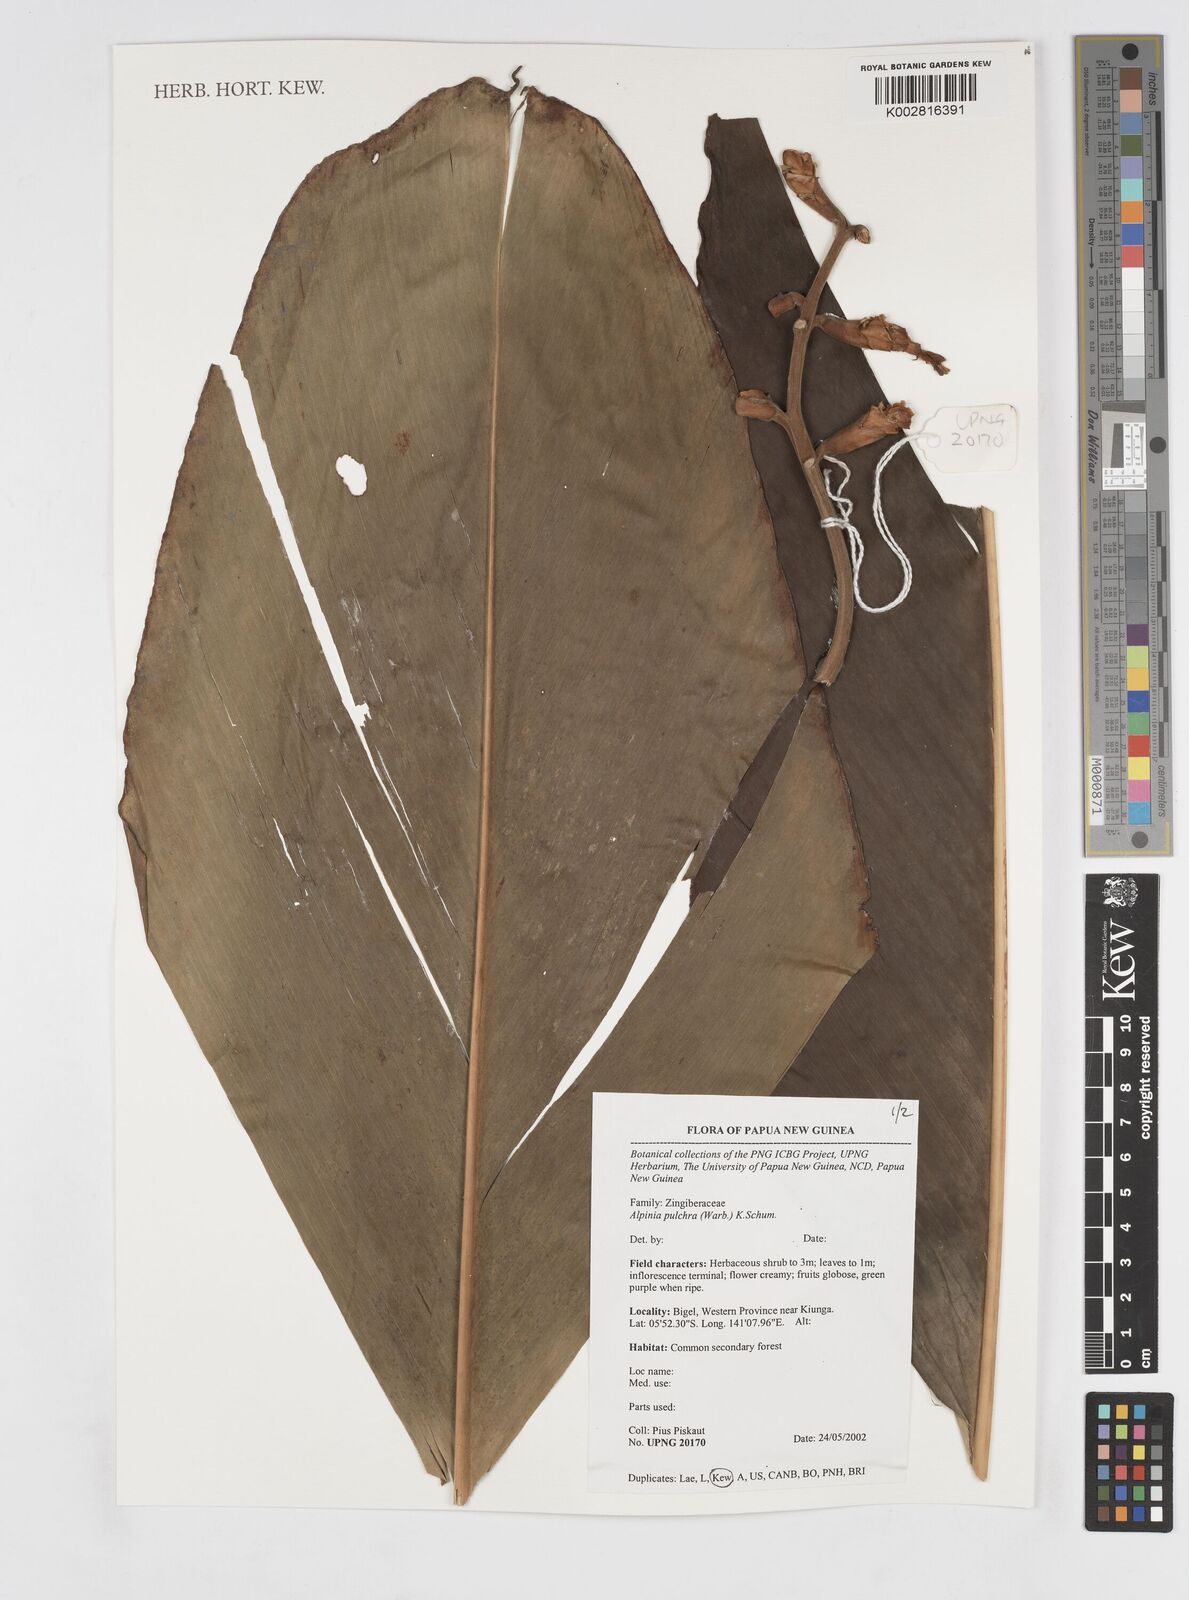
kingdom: Plantae
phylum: Tracheophyta
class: Liliopsida
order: Zingiberales
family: Zingiberaceae
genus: Alpinia
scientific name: Alpinia pulchra
